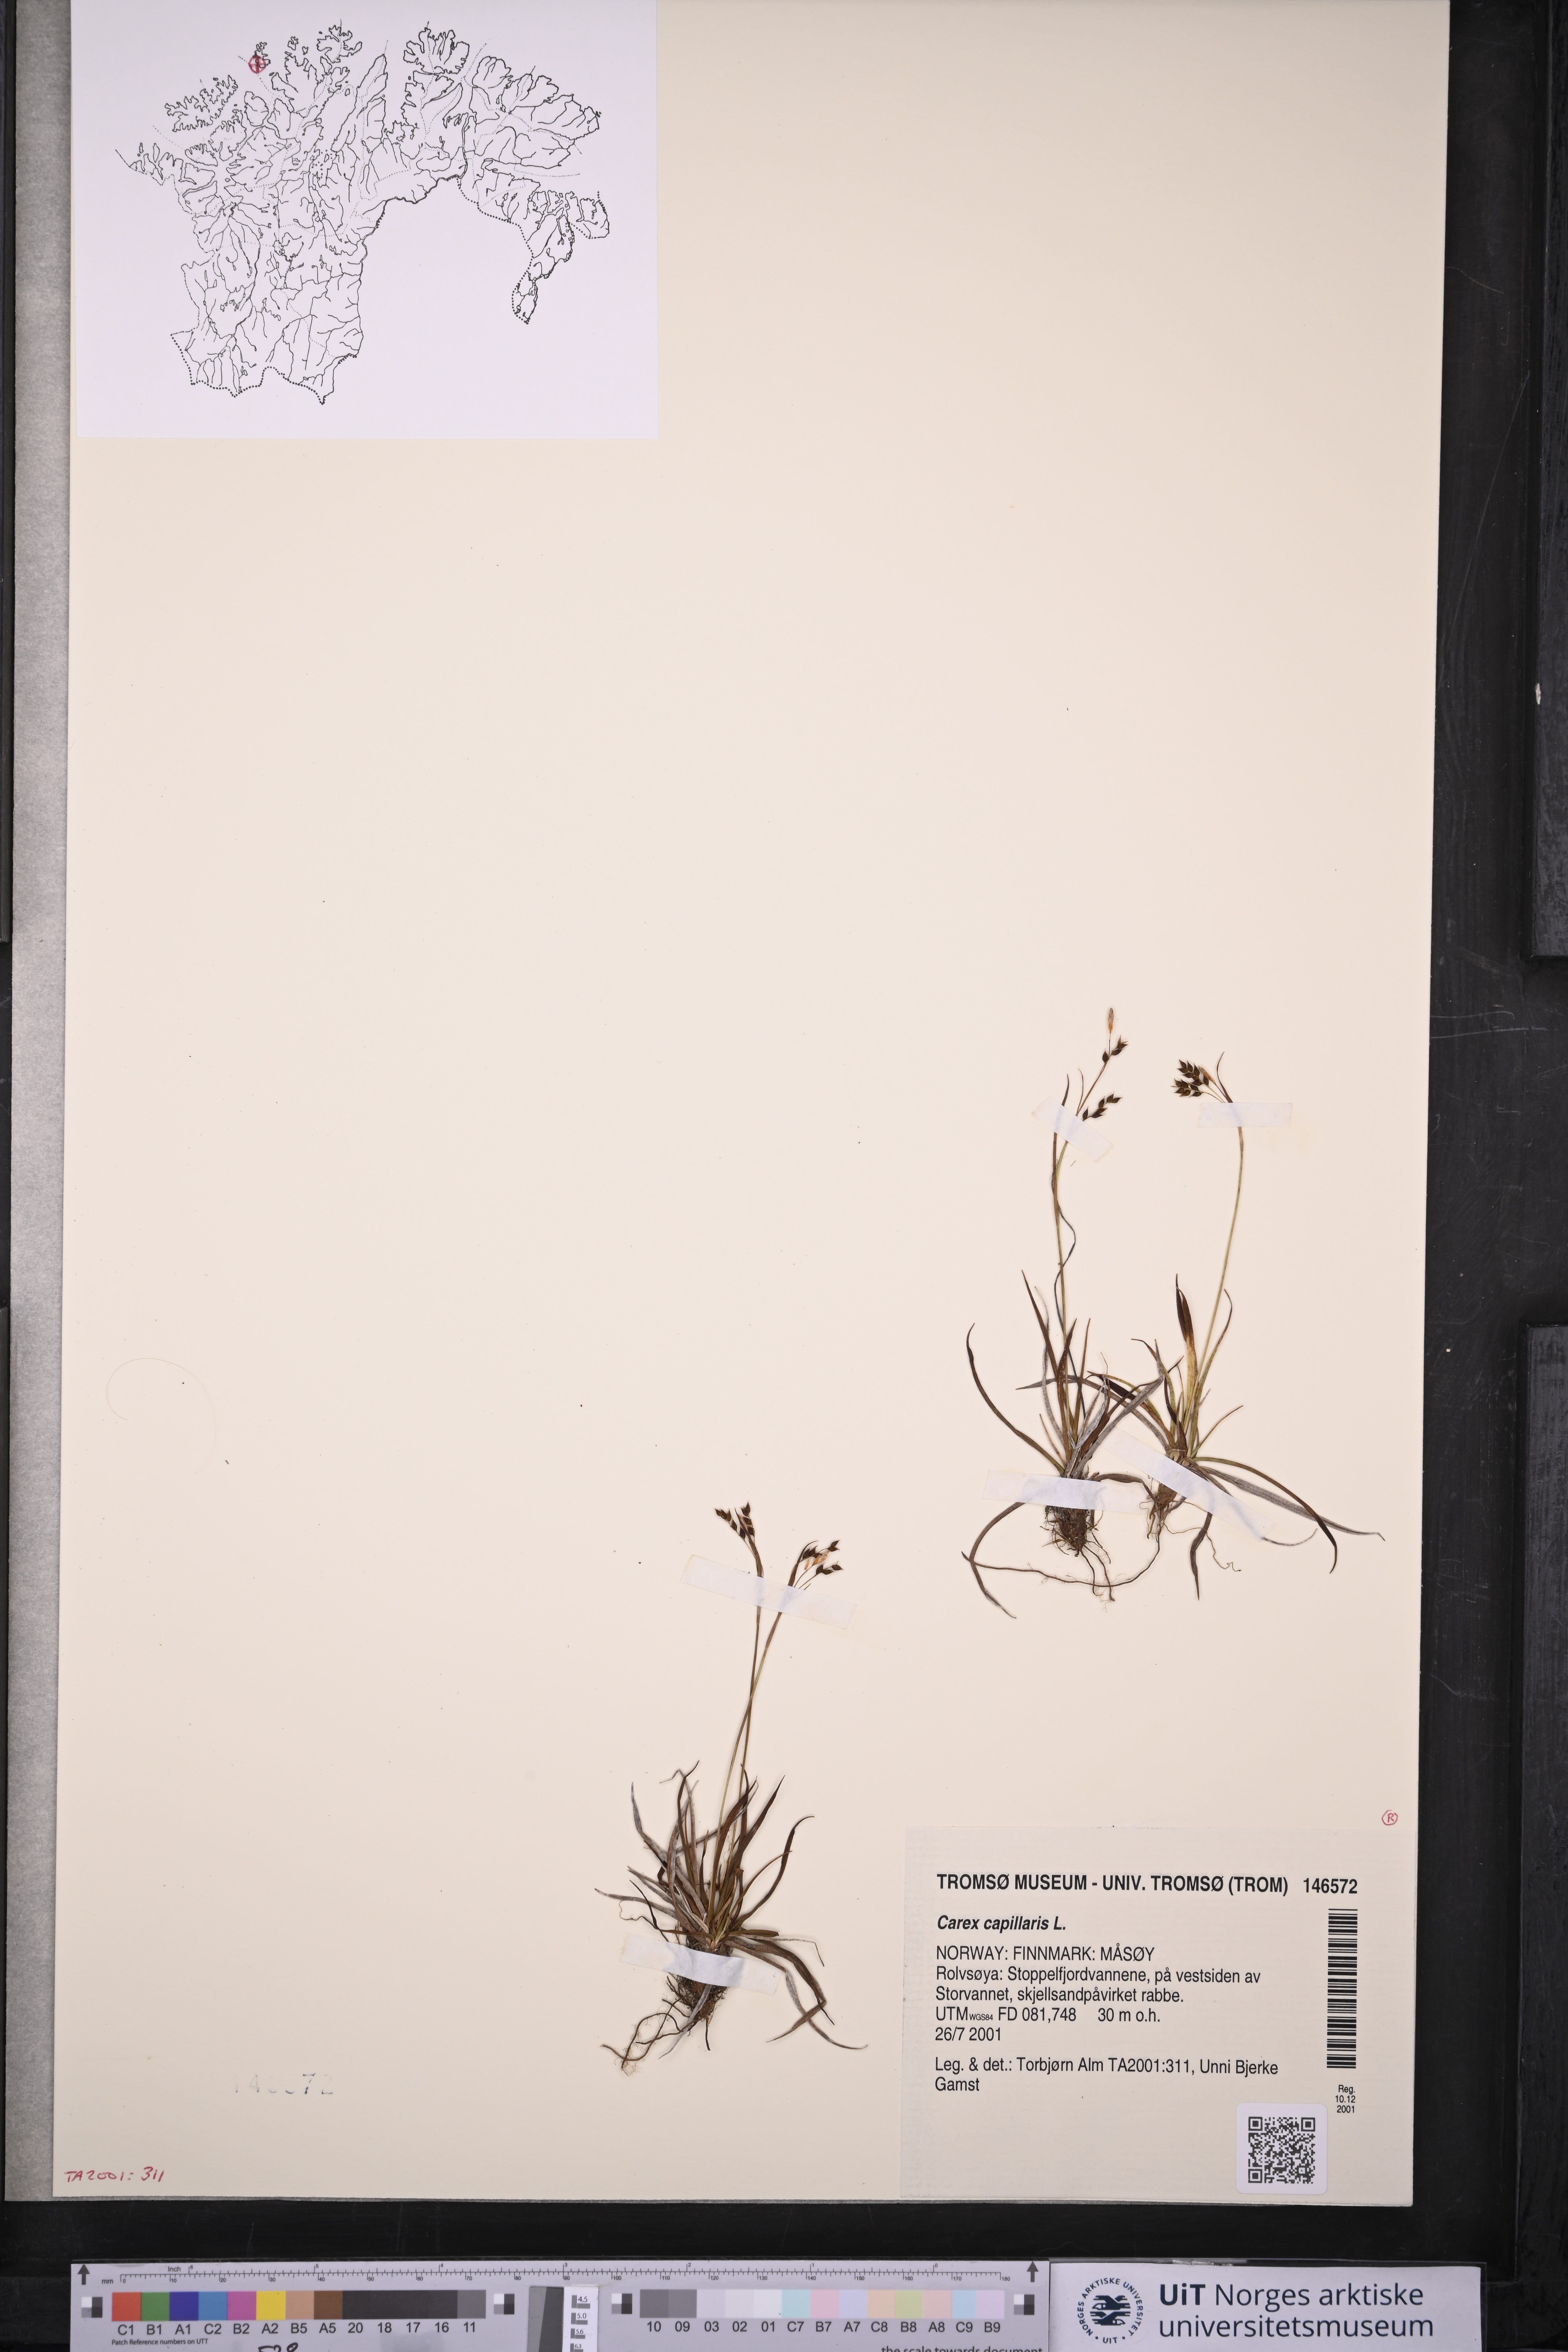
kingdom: Plantae
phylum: Tracheophyta
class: Liliopsida
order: Poales
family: Cyperaceae
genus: Carex
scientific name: Carex capillaris
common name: Hair sedge
